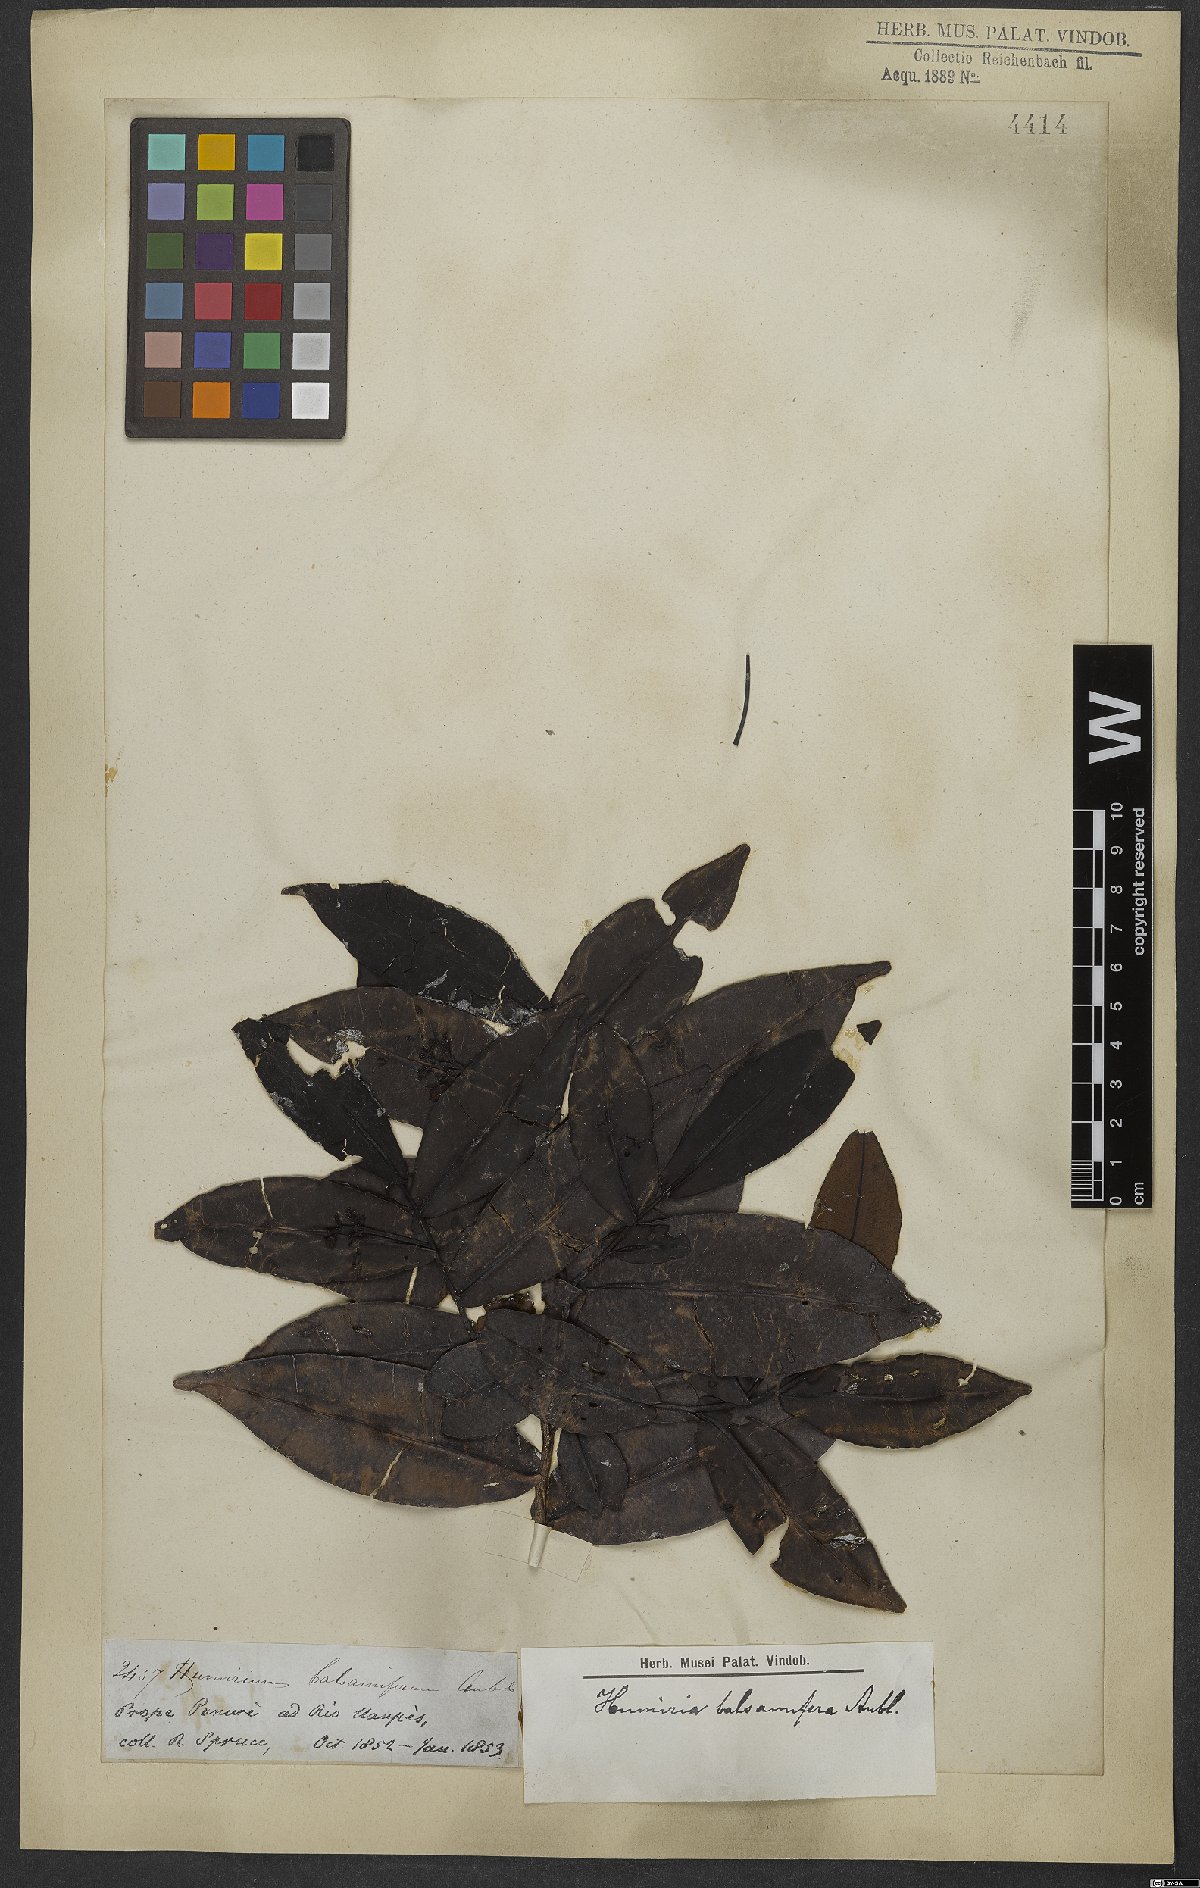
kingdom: Plantae
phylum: Tracheophyta
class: Magnoliopsida
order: Malpighiales
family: Humiriaceae
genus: Humiria
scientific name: Humiria balsamifera
